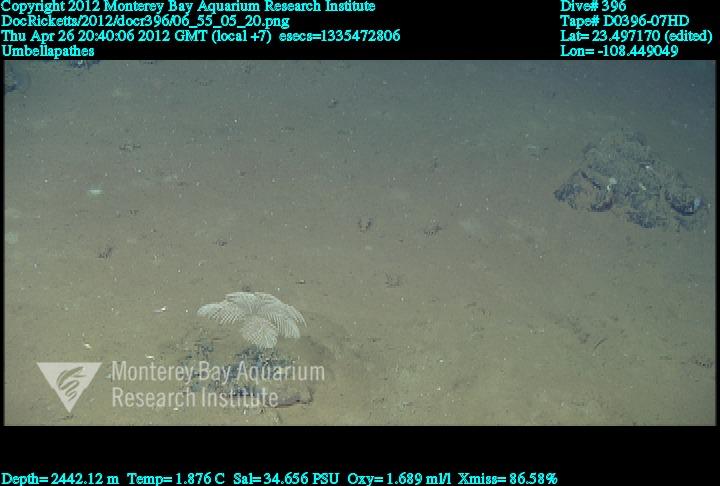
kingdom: Animalia
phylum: Cnidaria
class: Anthozoa
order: Antipatharia
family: Schizopathidae
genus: Umbellapathes
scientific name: Umbellapathes
